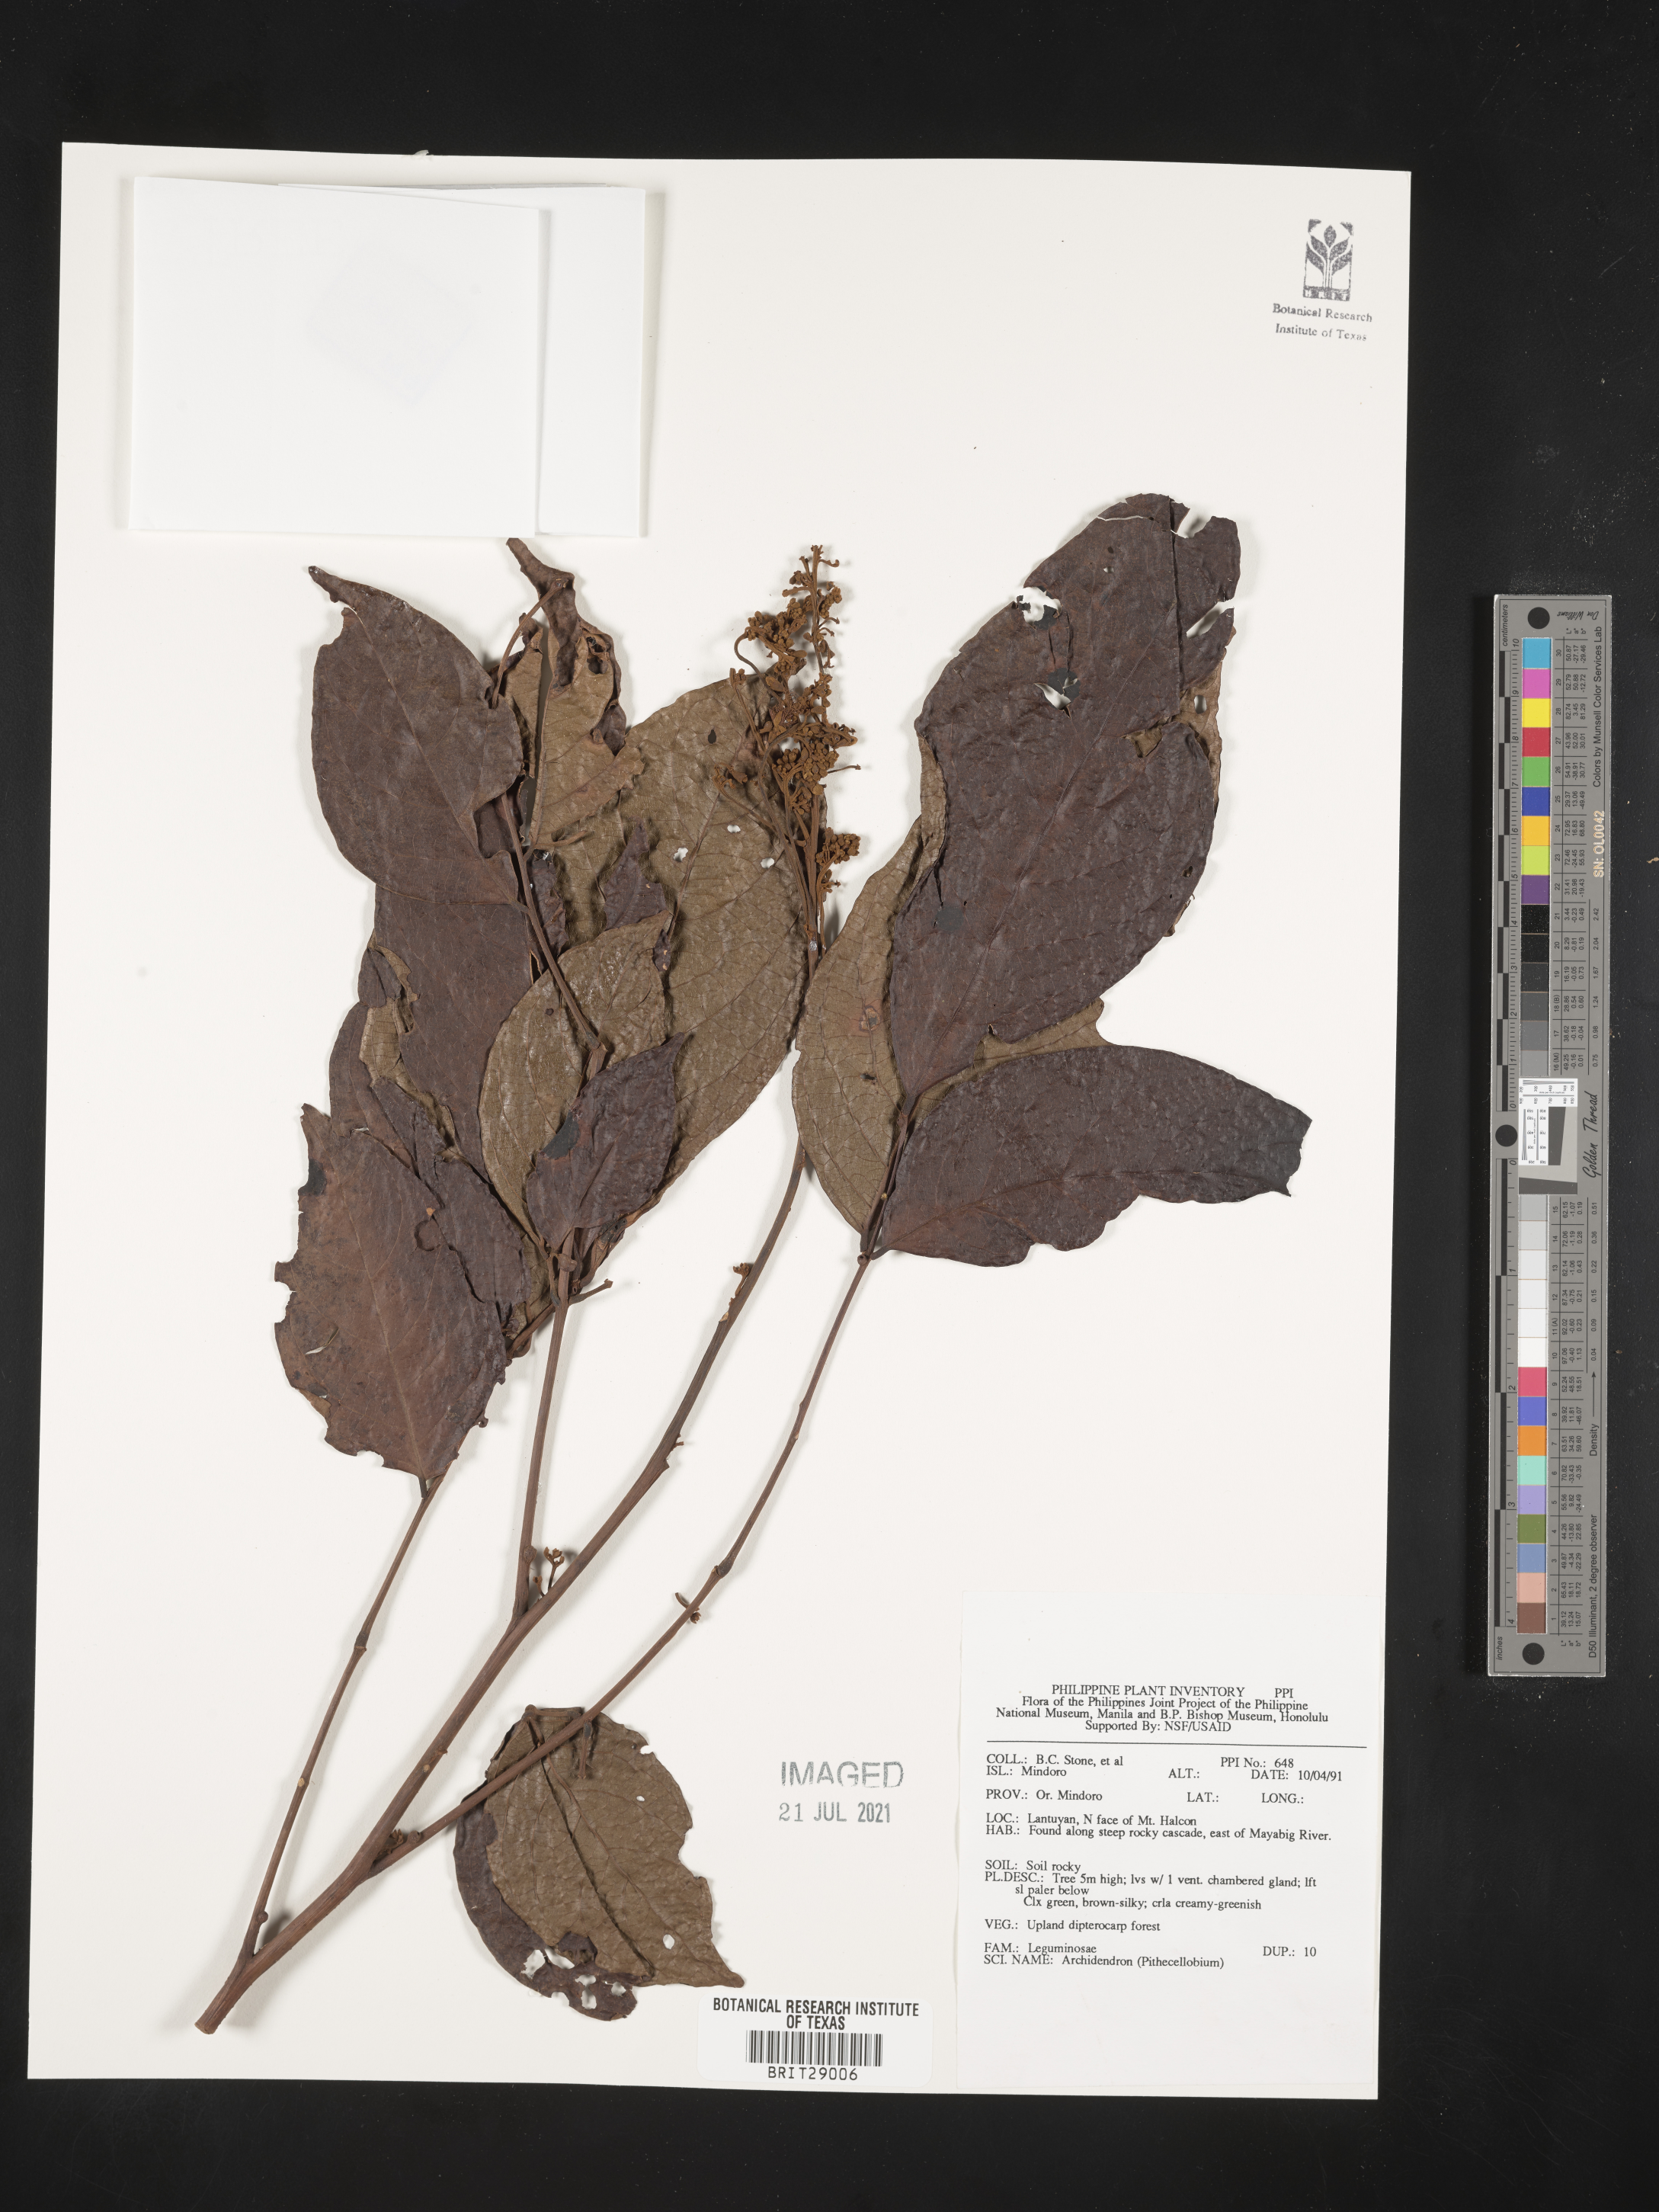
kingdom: Plantae
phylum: Tracheophyta
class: Magnoliopsida
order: Fabales
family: Fabaceae
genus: Archidendron
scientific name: Archidendron
